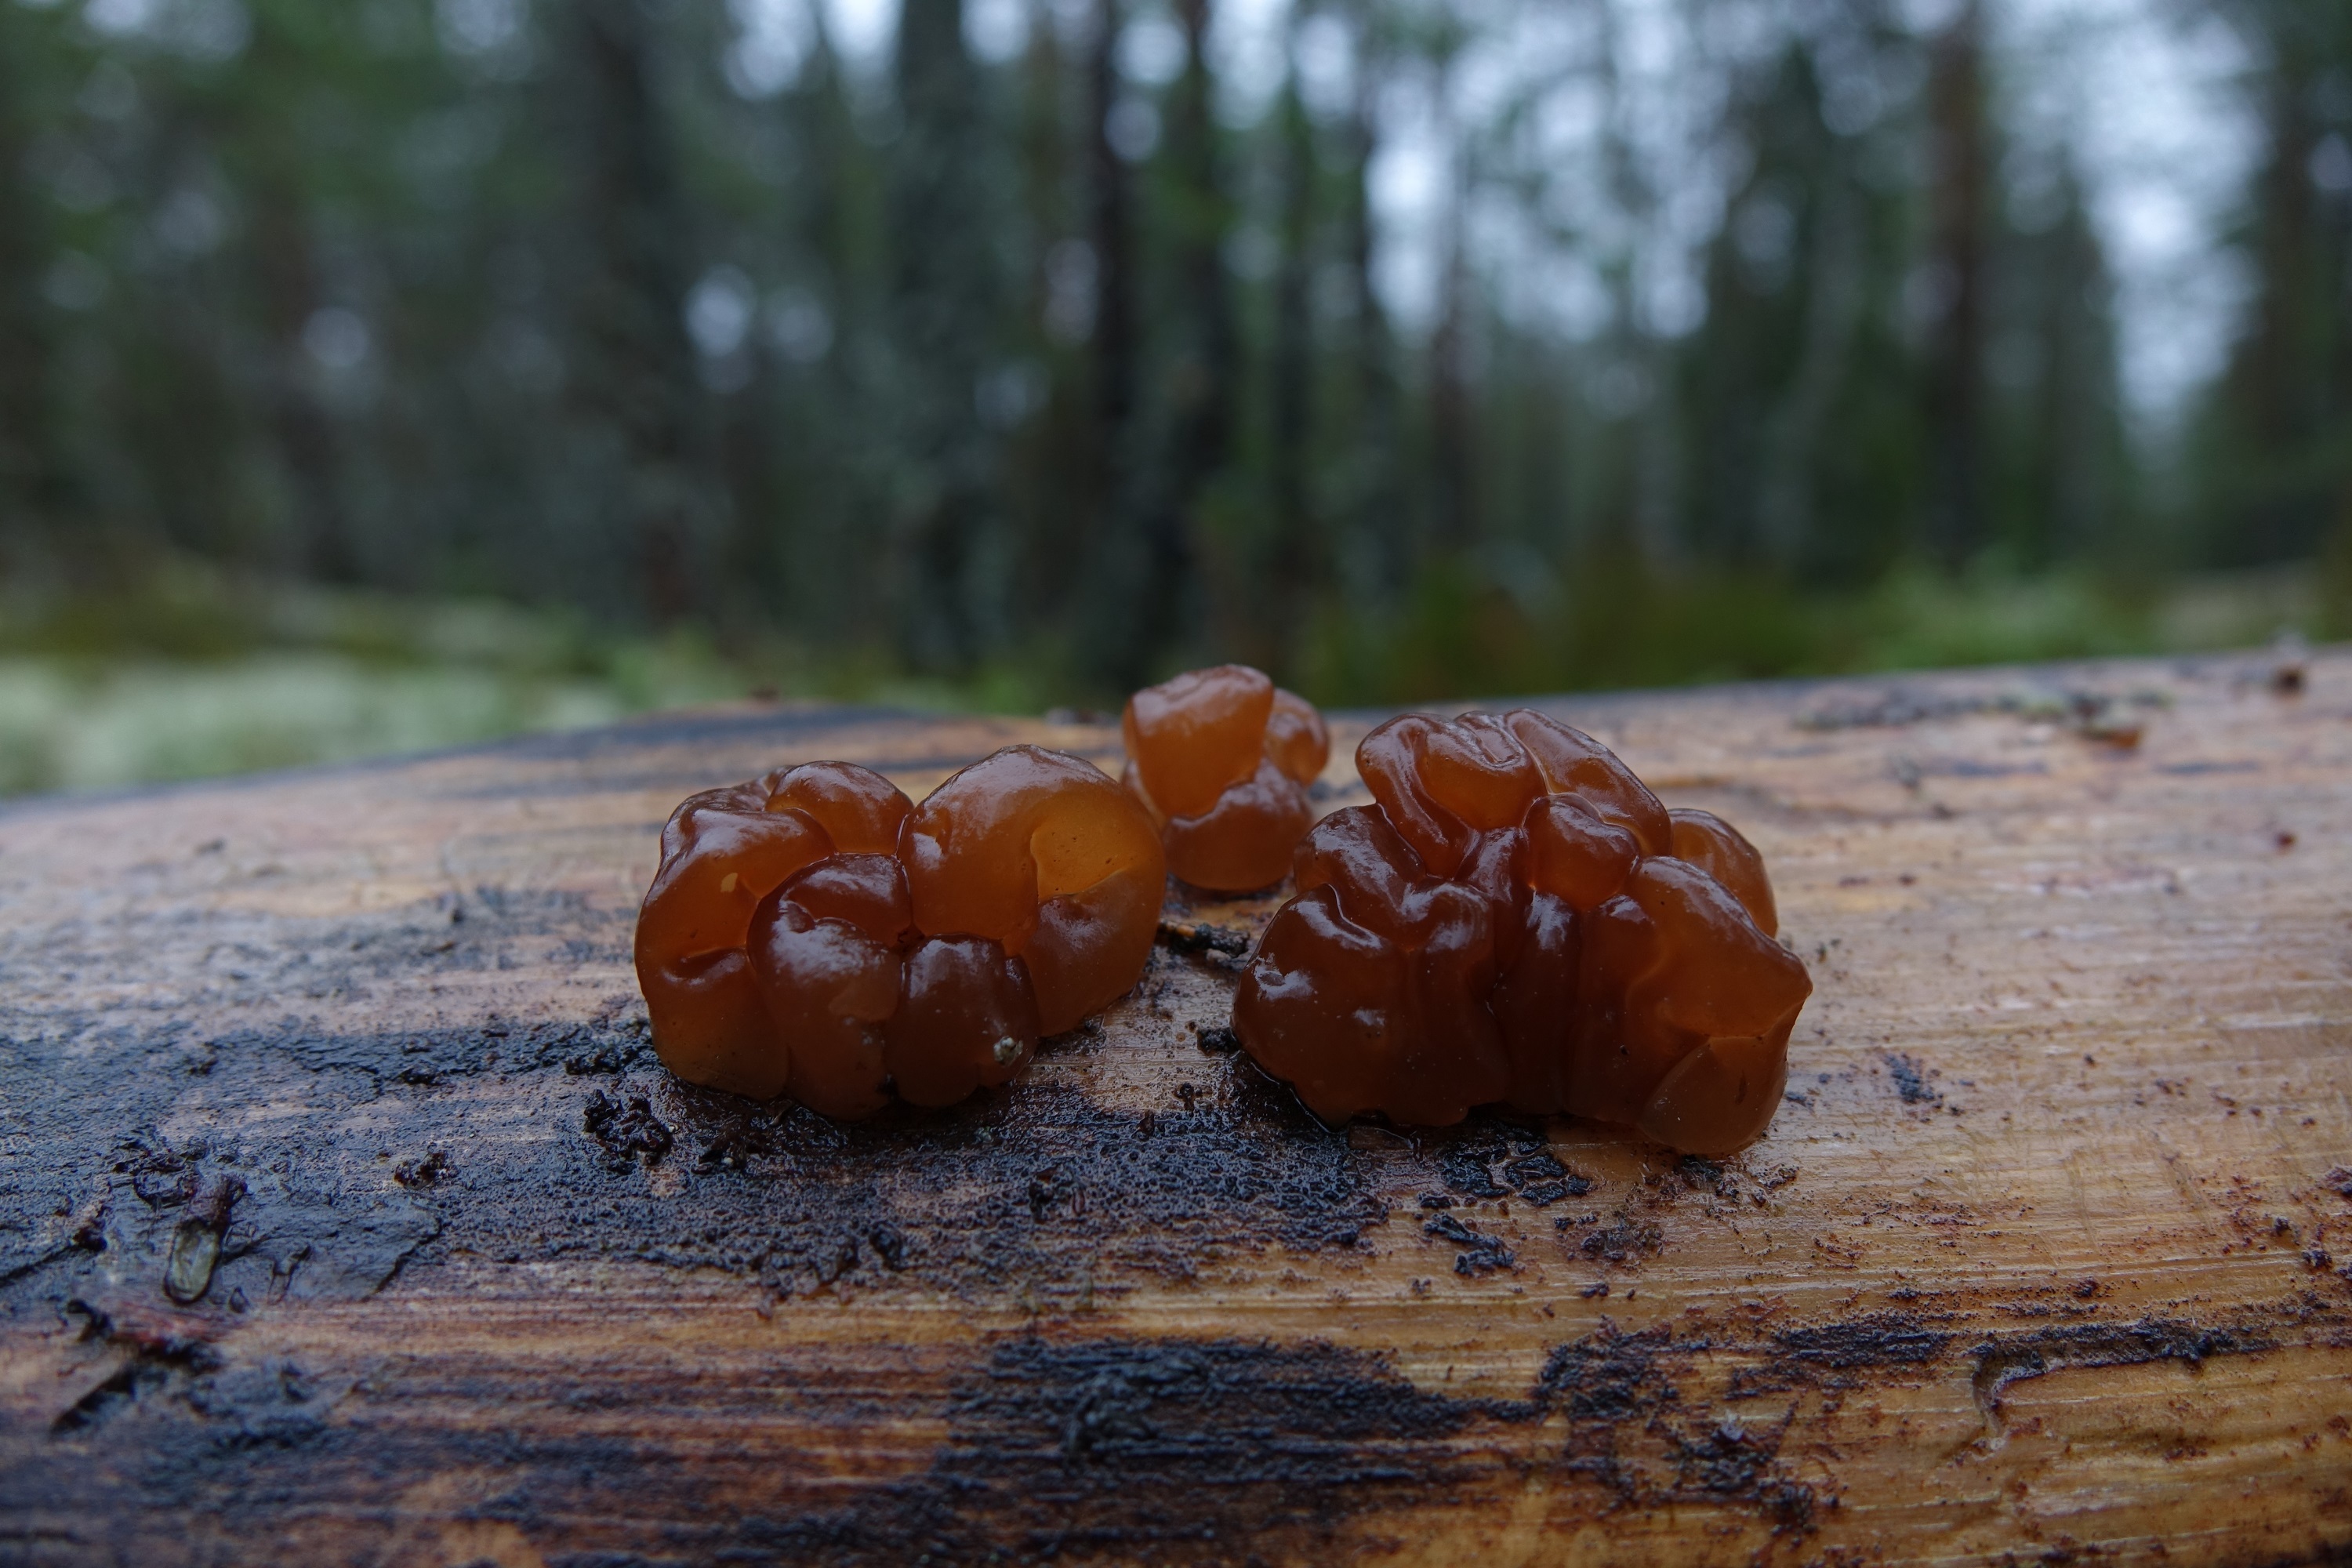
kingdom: Fungi
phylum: Basidiomycota
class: Agaricomycetes
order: Auriculariales
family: Auriculariaceae
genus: Exidia
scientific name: Exidia saccharina
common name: Pine jelly
